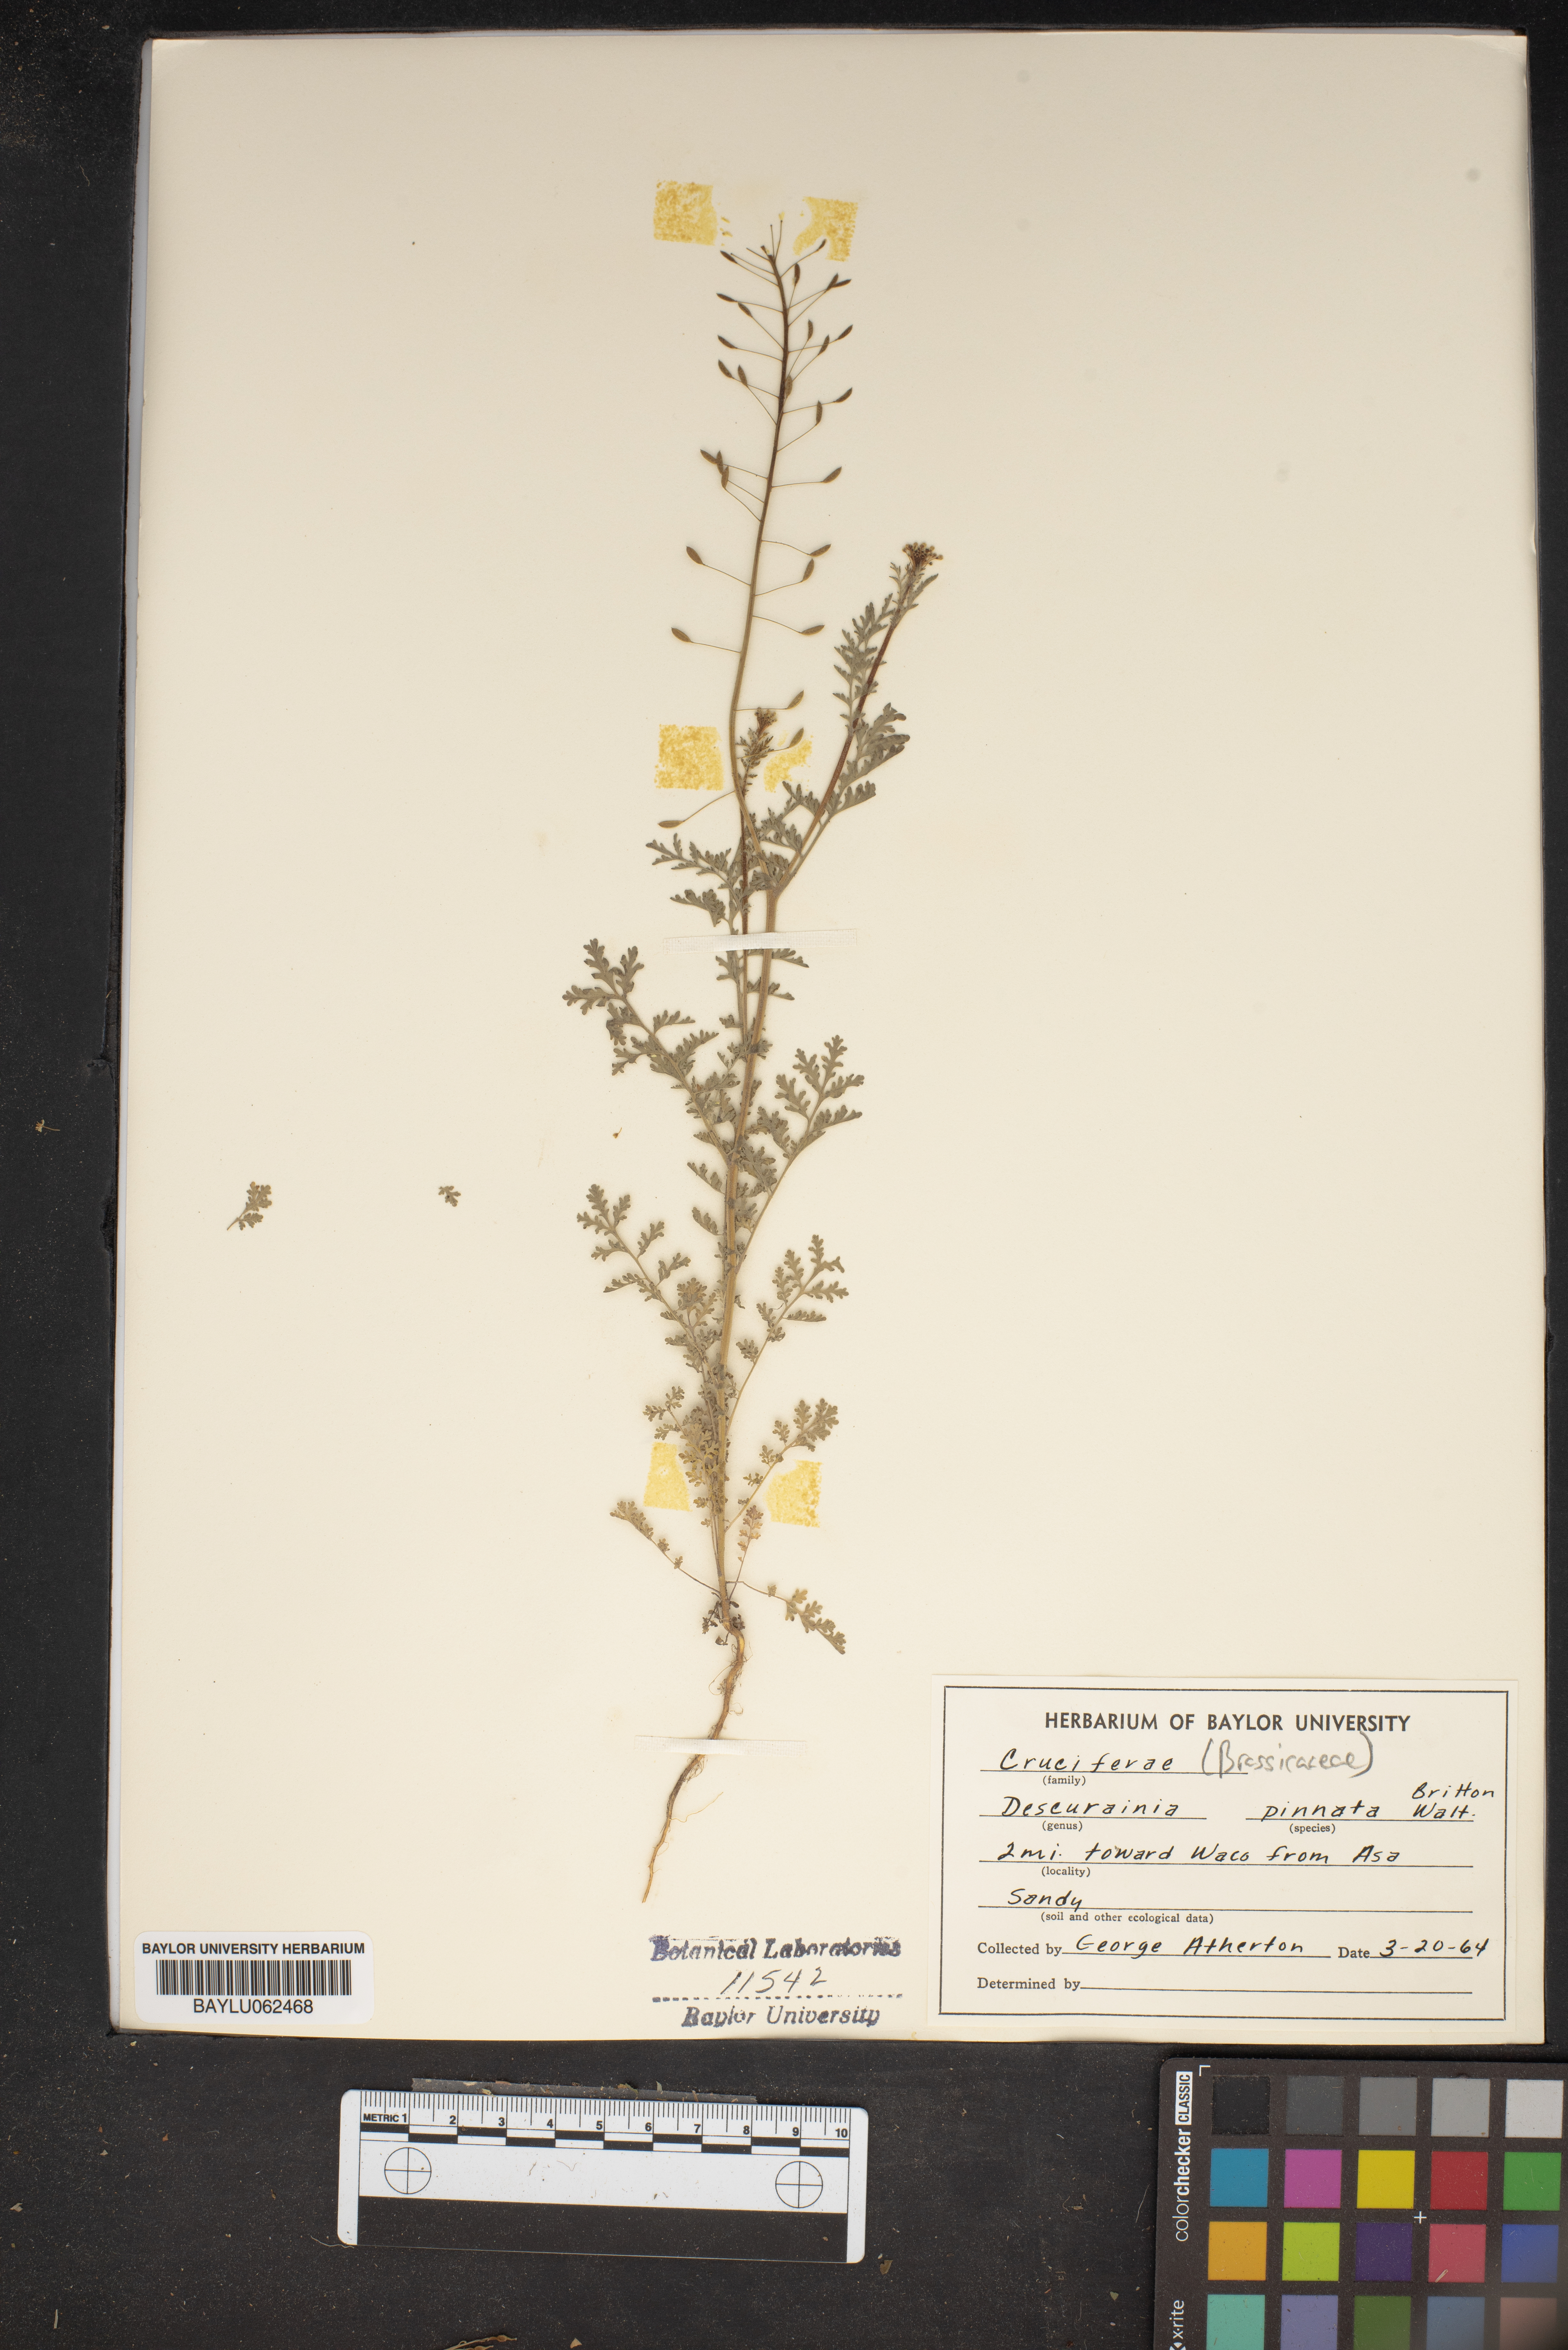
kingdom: Plantae
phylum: Tracheophyta
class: Magnoliopsida
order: Brassicales
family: Brassicaceae
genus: Descurainia
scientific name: Descurainia pinnata
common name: Western tansy mustard
